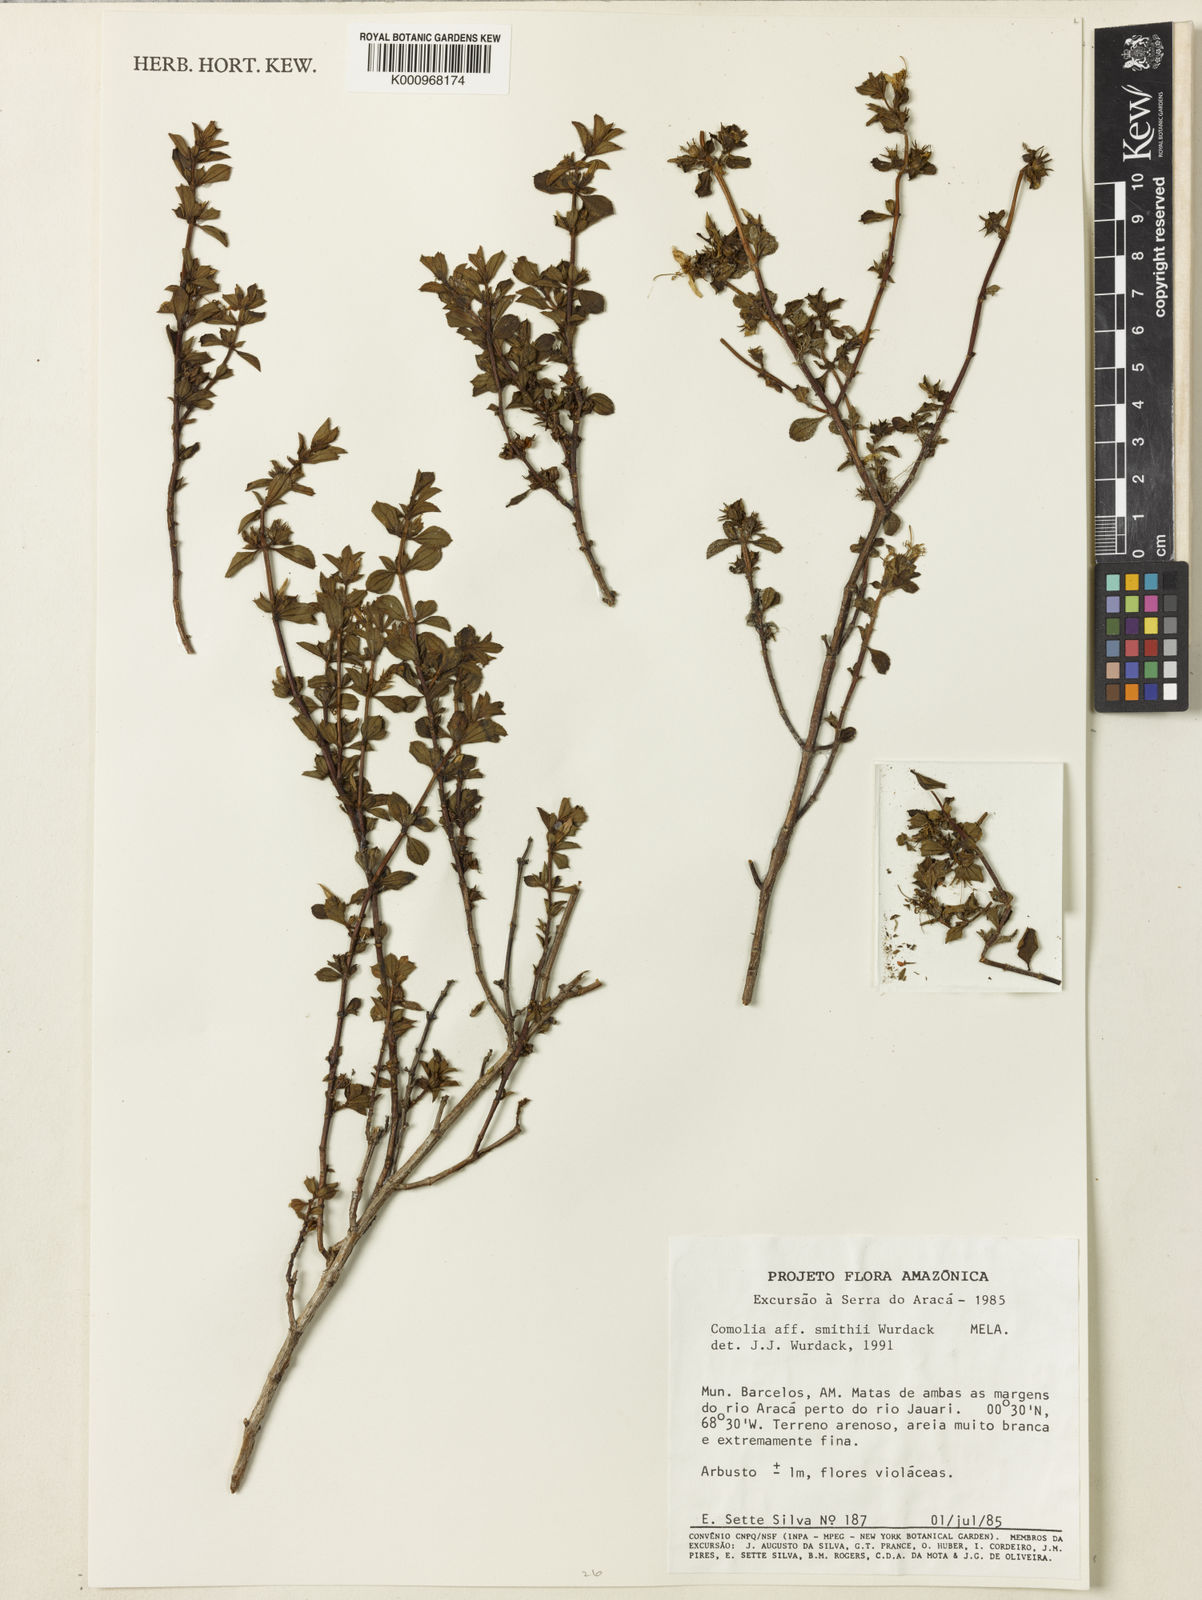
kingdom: Plantae
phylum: Tracheophyta
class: Magnoliopsida
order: Myrtales
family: Melastomataceae
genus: Comolia
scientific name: Comolia smithii
